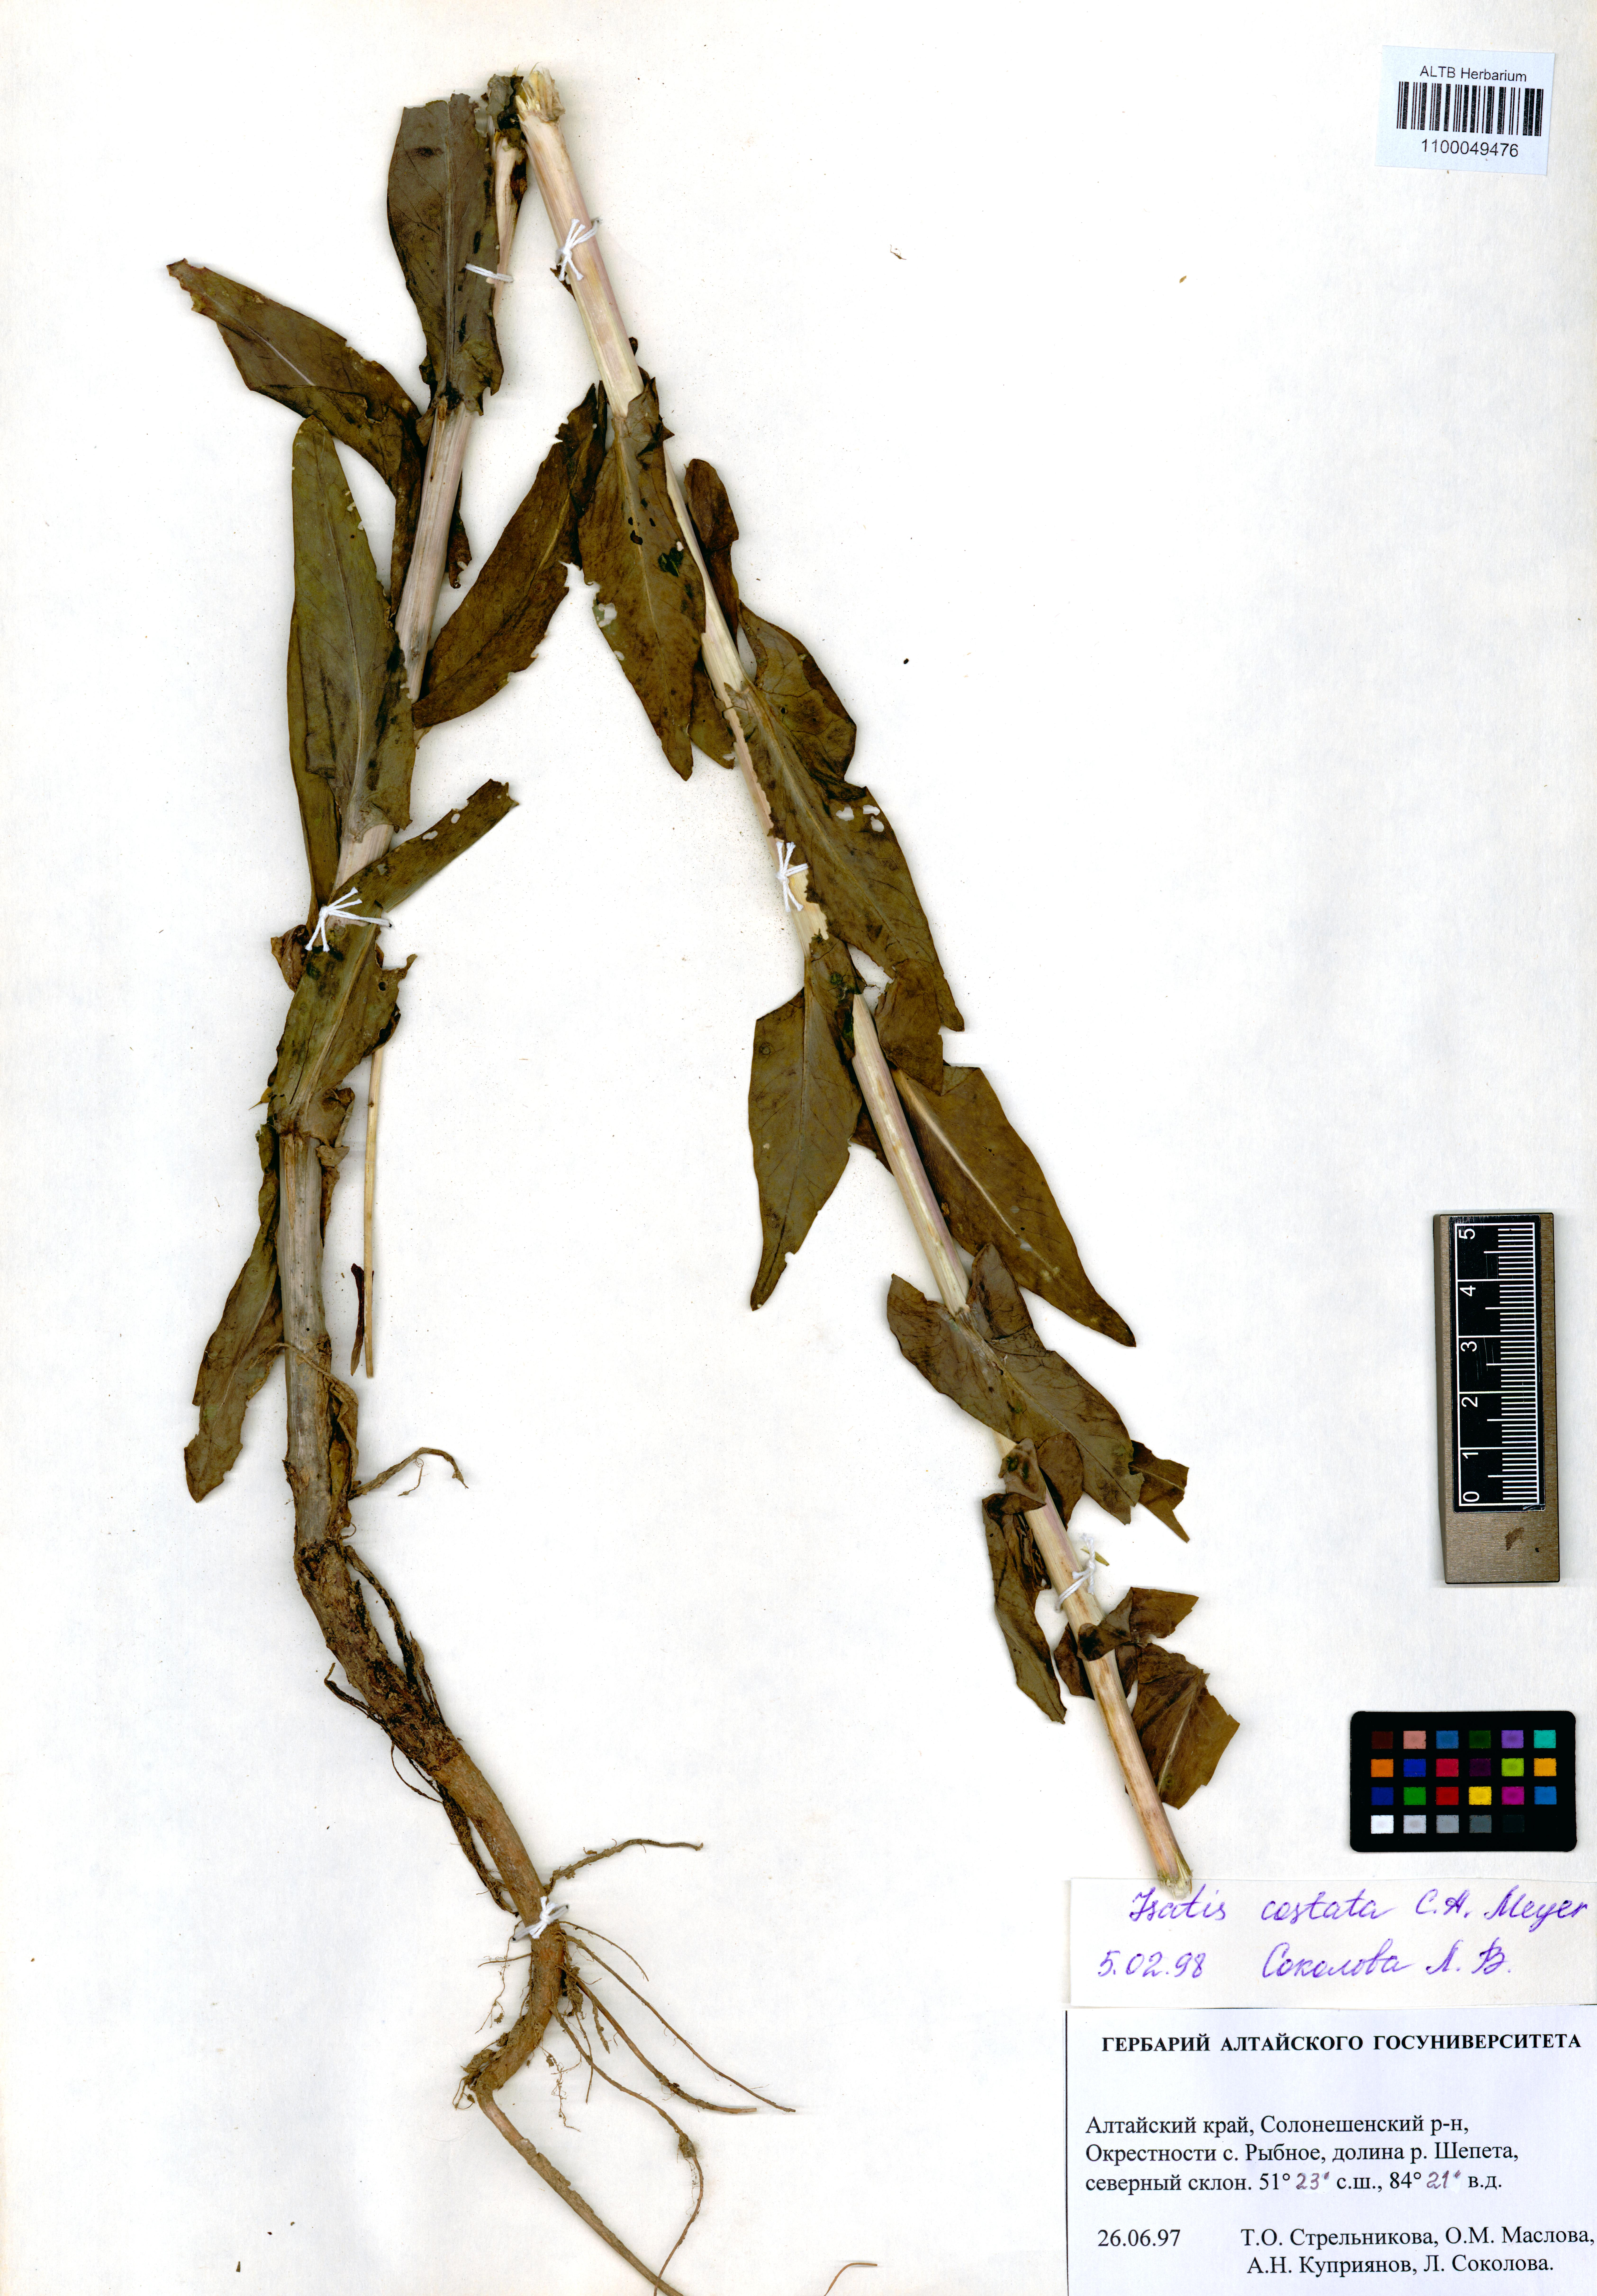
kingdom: Plantae
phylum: Tracheophyta
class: Magnoliopsida
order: Brassicales
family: Brassicaceae
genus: Isatis
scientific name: Isatis costata
